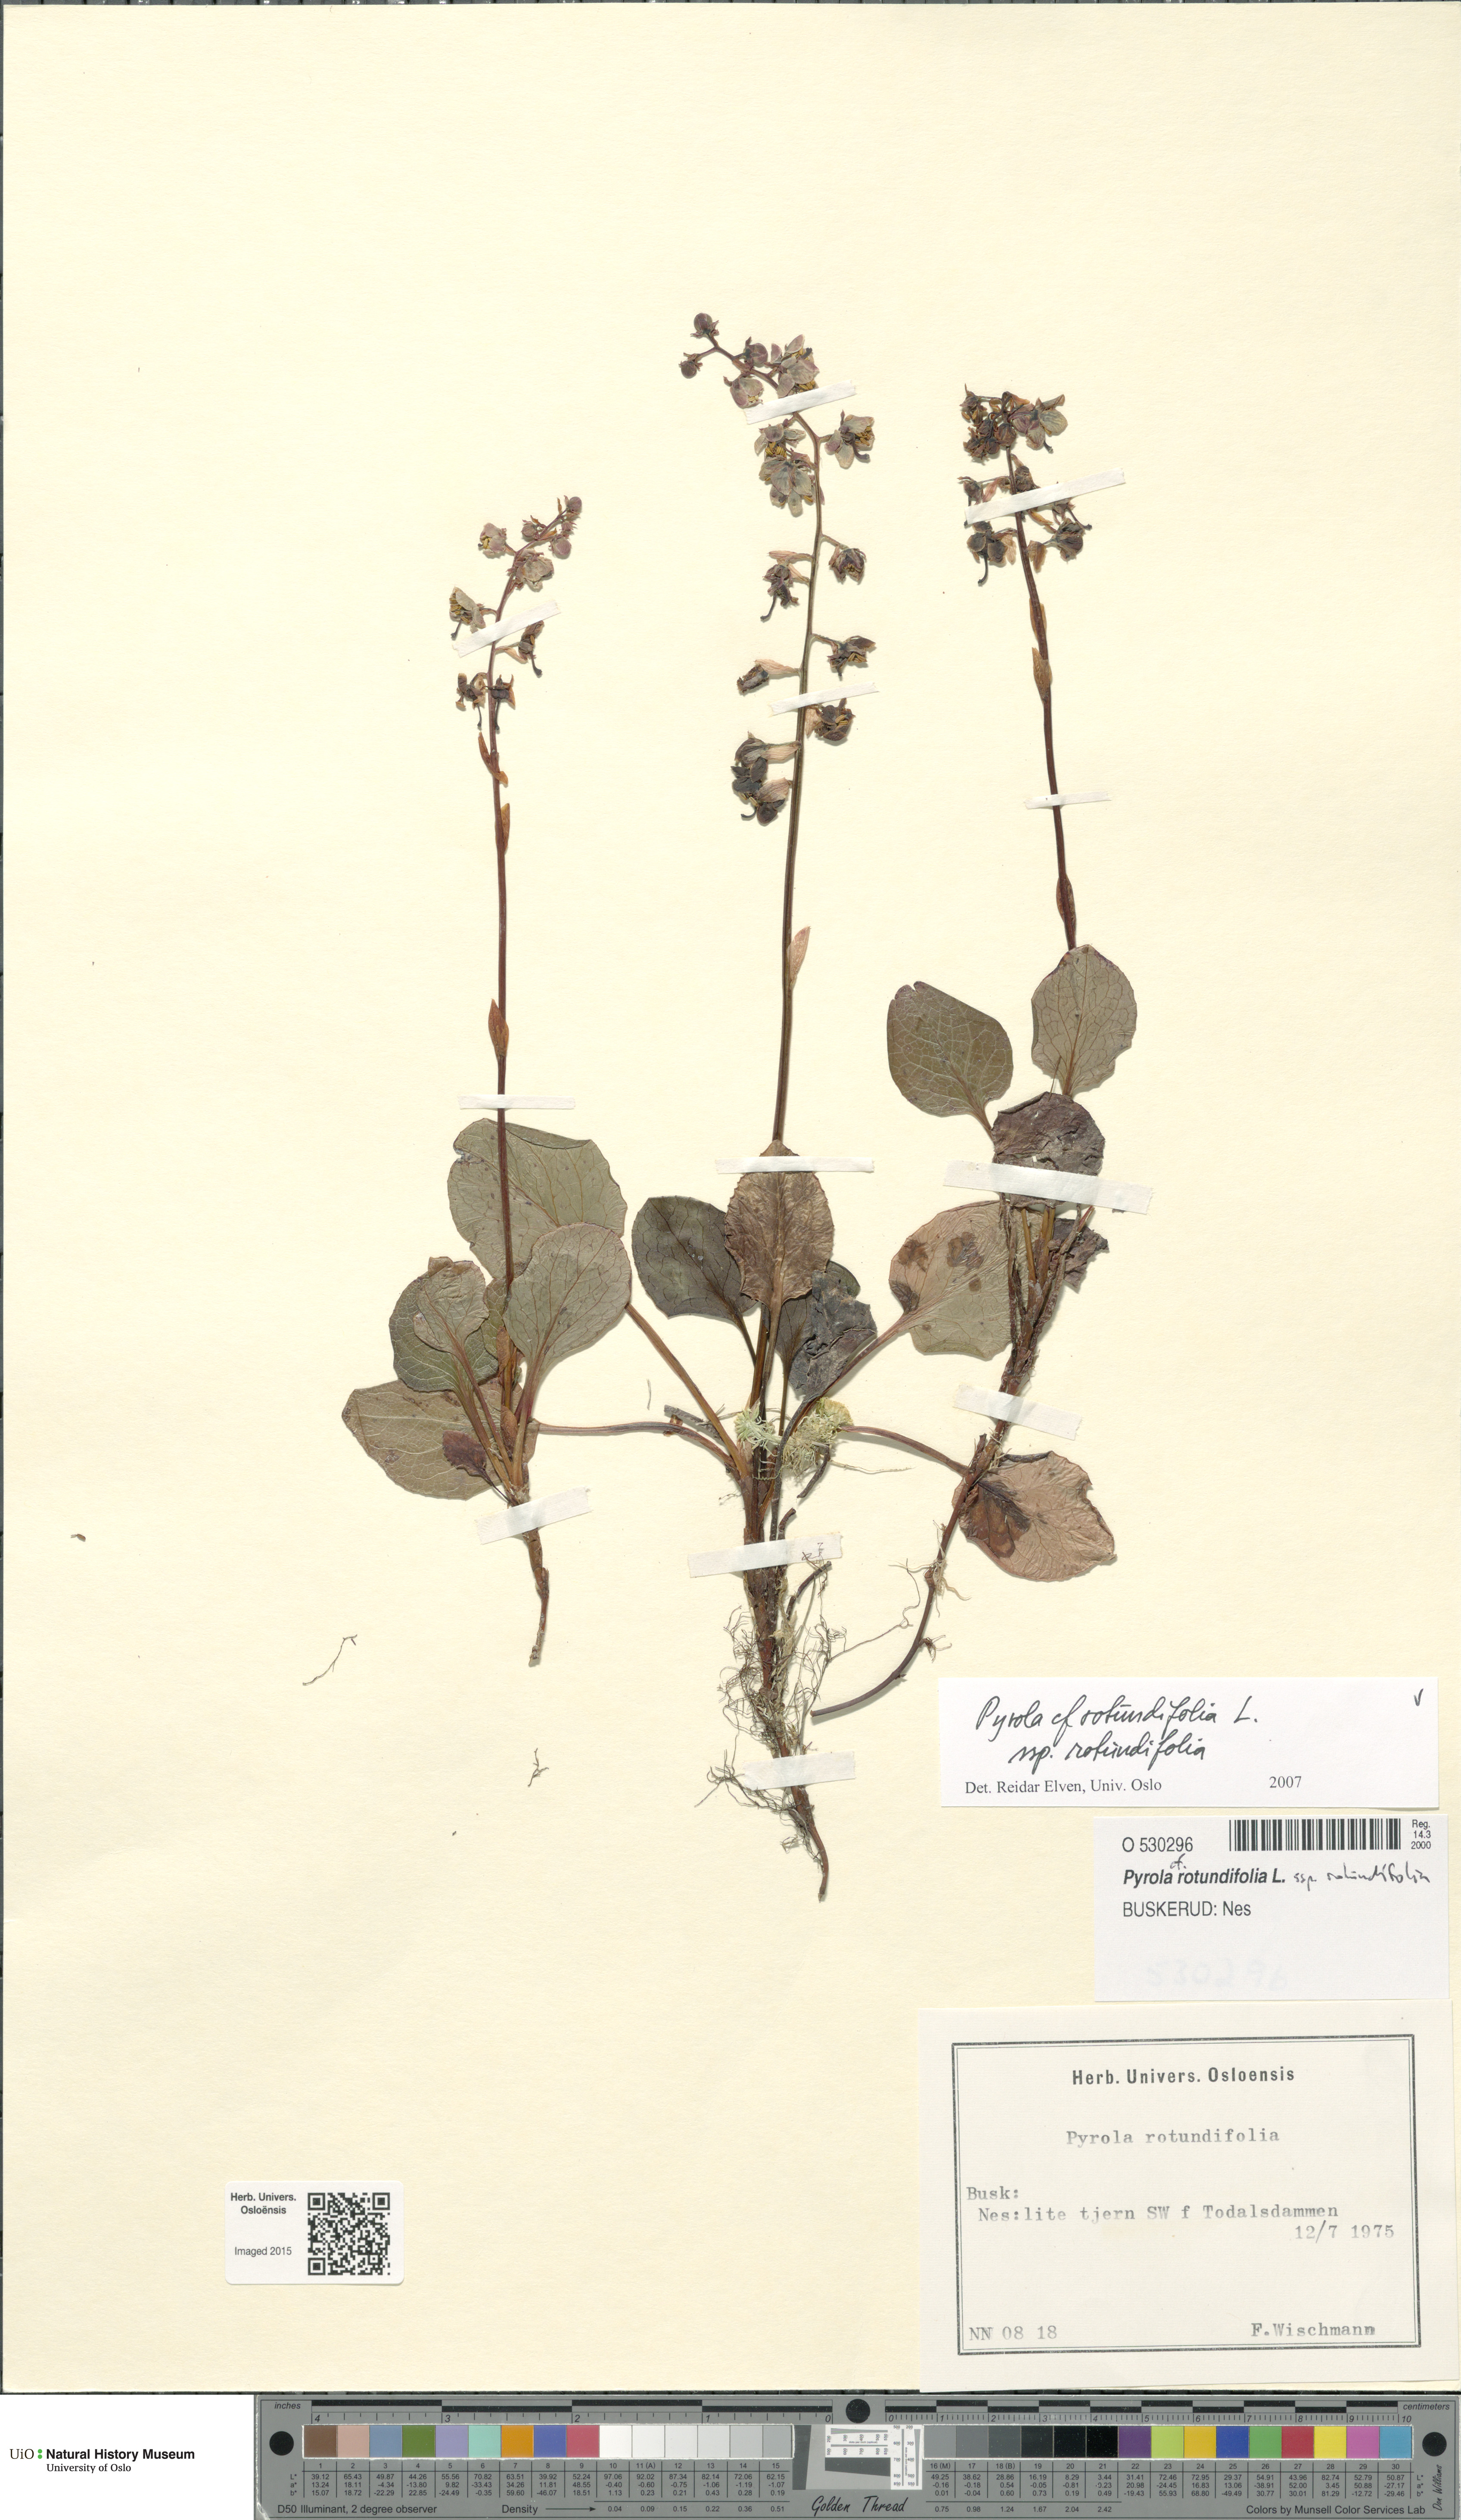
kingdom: Plantae
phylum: Tracheophyta
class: Magnoliopsida
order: Ericales
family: Ericaceae
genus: Pyrola
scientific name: Pyrola rotundifolia
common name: Round-leaved wintergreen
